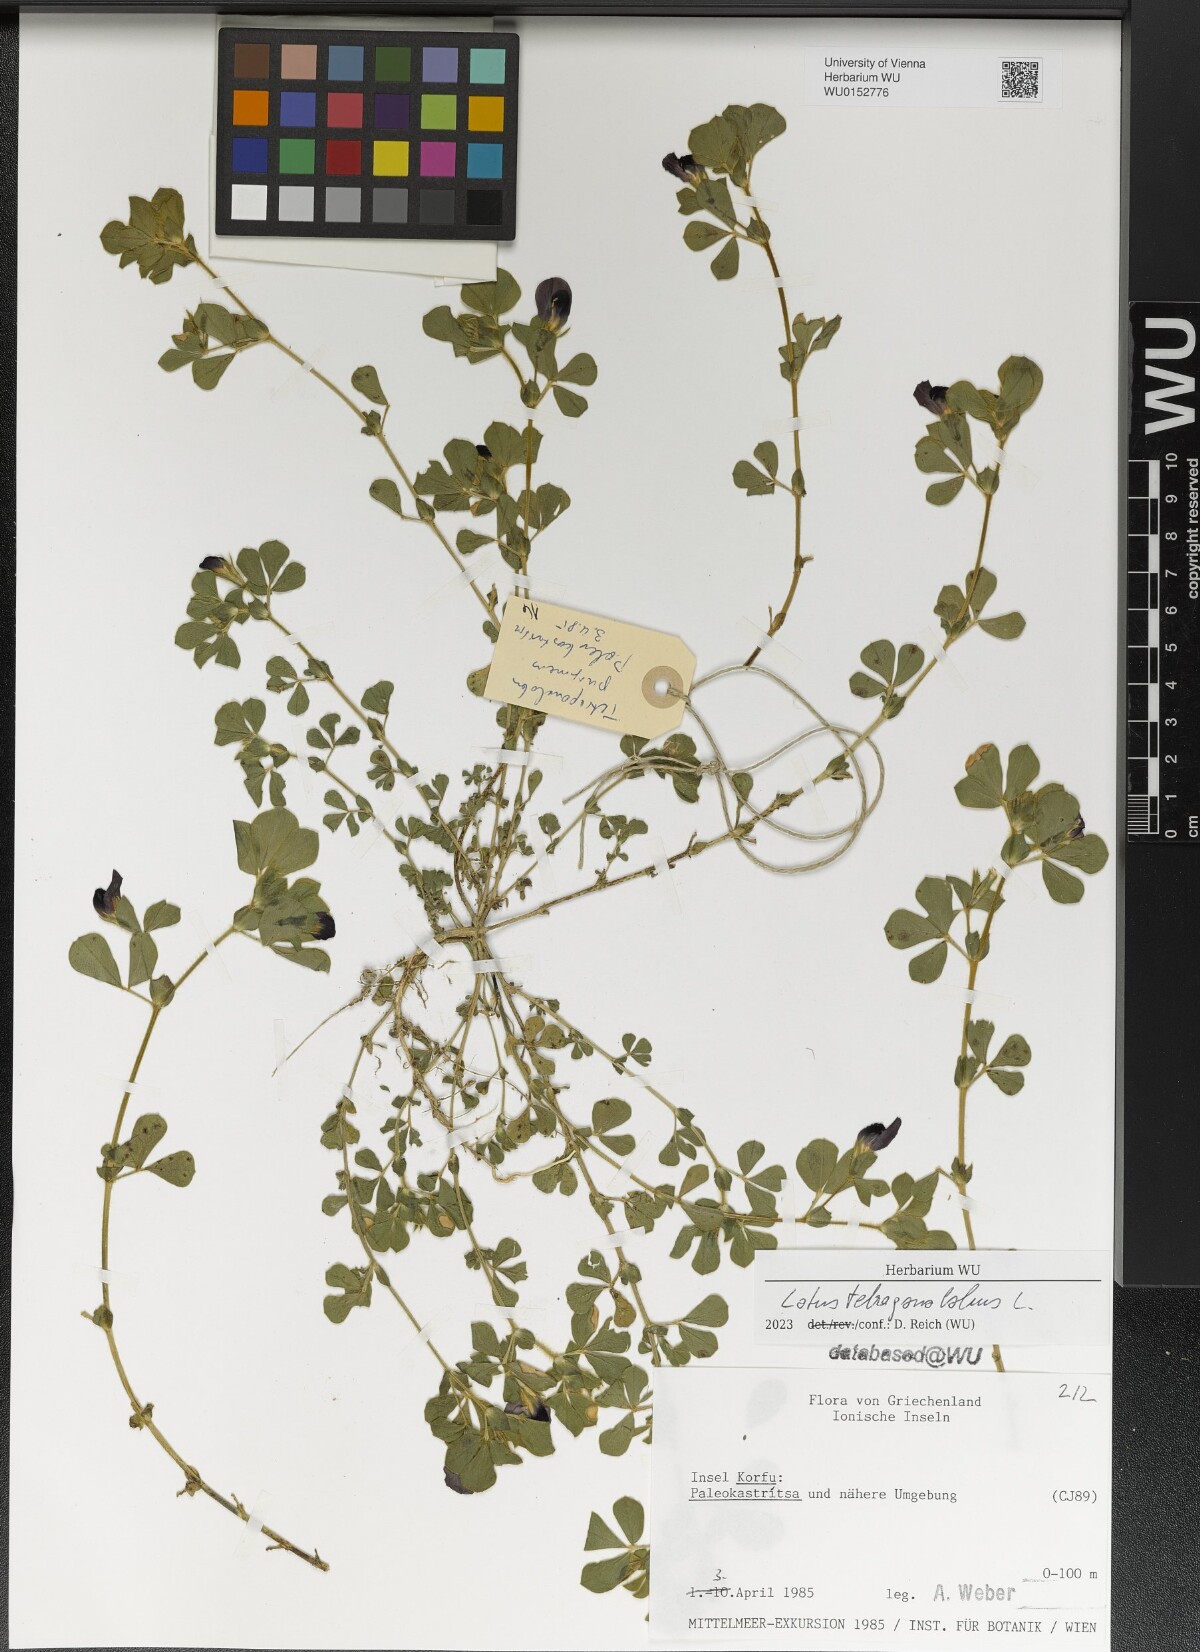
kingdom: Plantae
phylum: Tracheophyta
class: Magnoliopsida
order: Fabales
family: Fabaceae
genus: Lotus
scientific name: Lotus tetragonolobus
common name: Asparagus-pea
